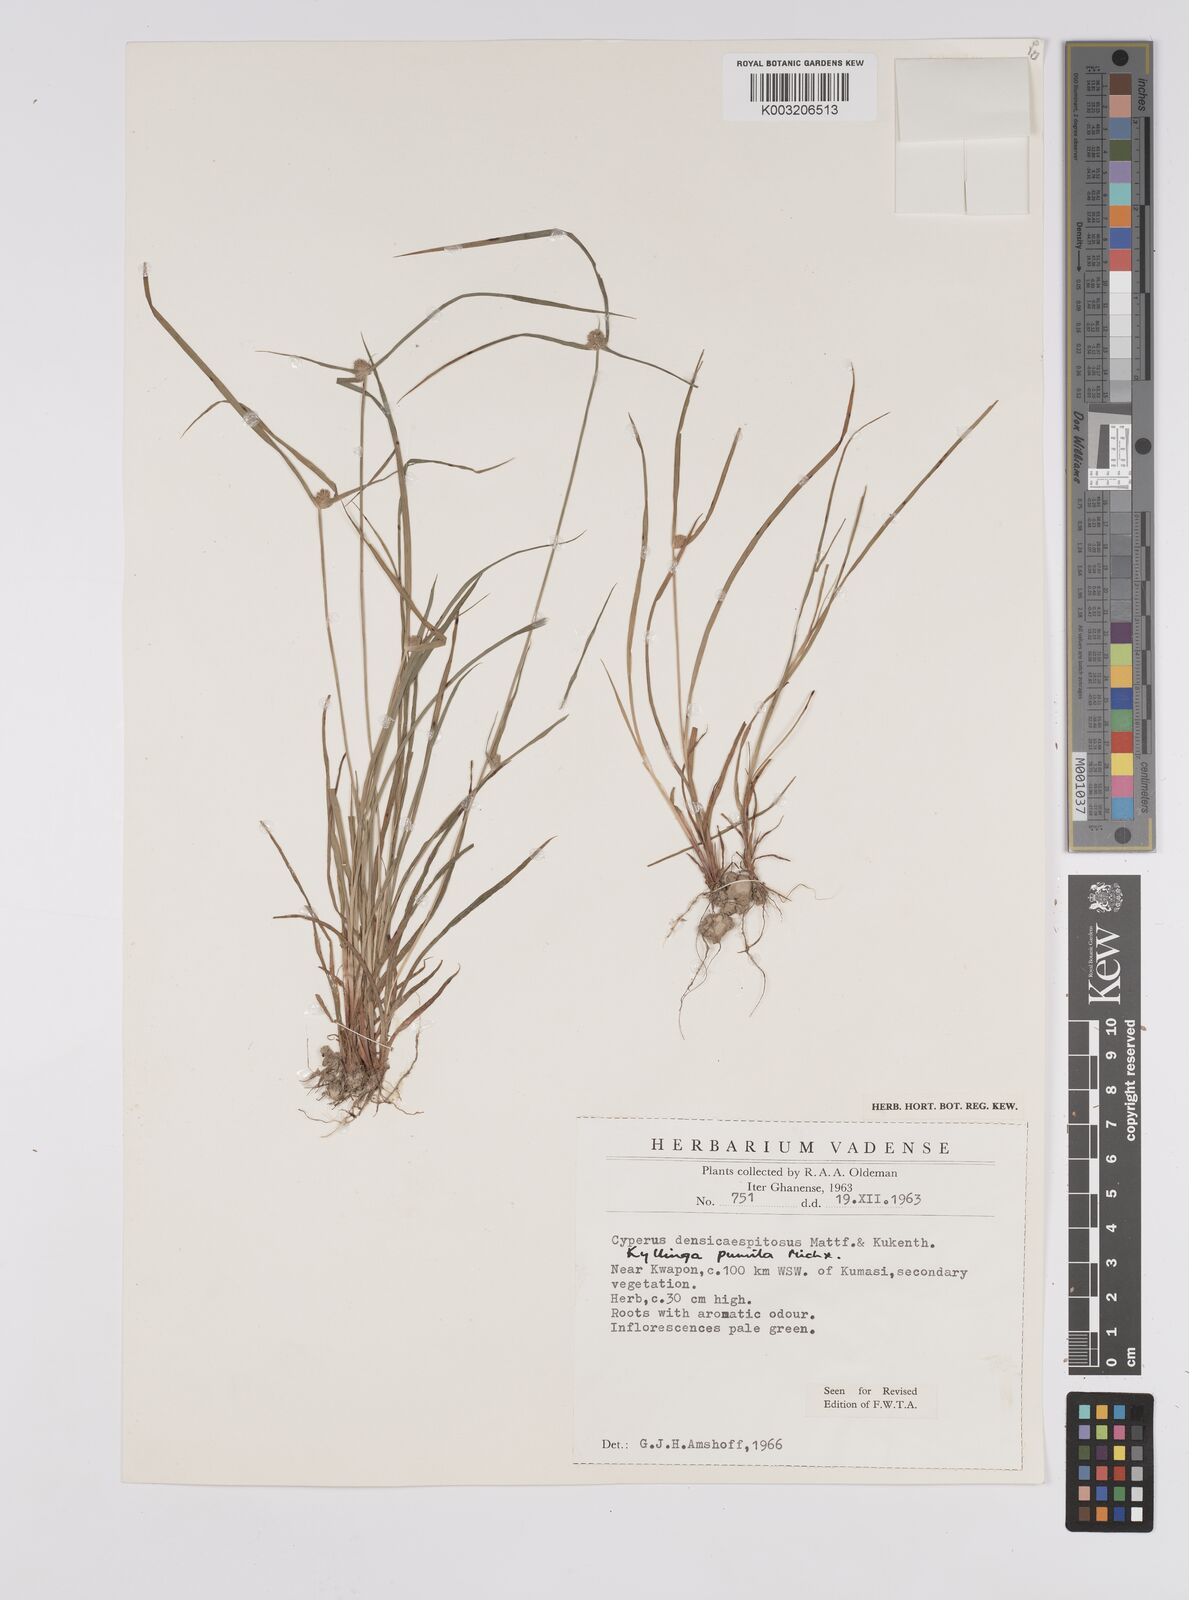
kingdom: Plantae
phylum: Tracheophyta
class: Liliopsida
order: Poales
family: Cyperaceae
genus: Cyperus
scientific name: Cyperus
